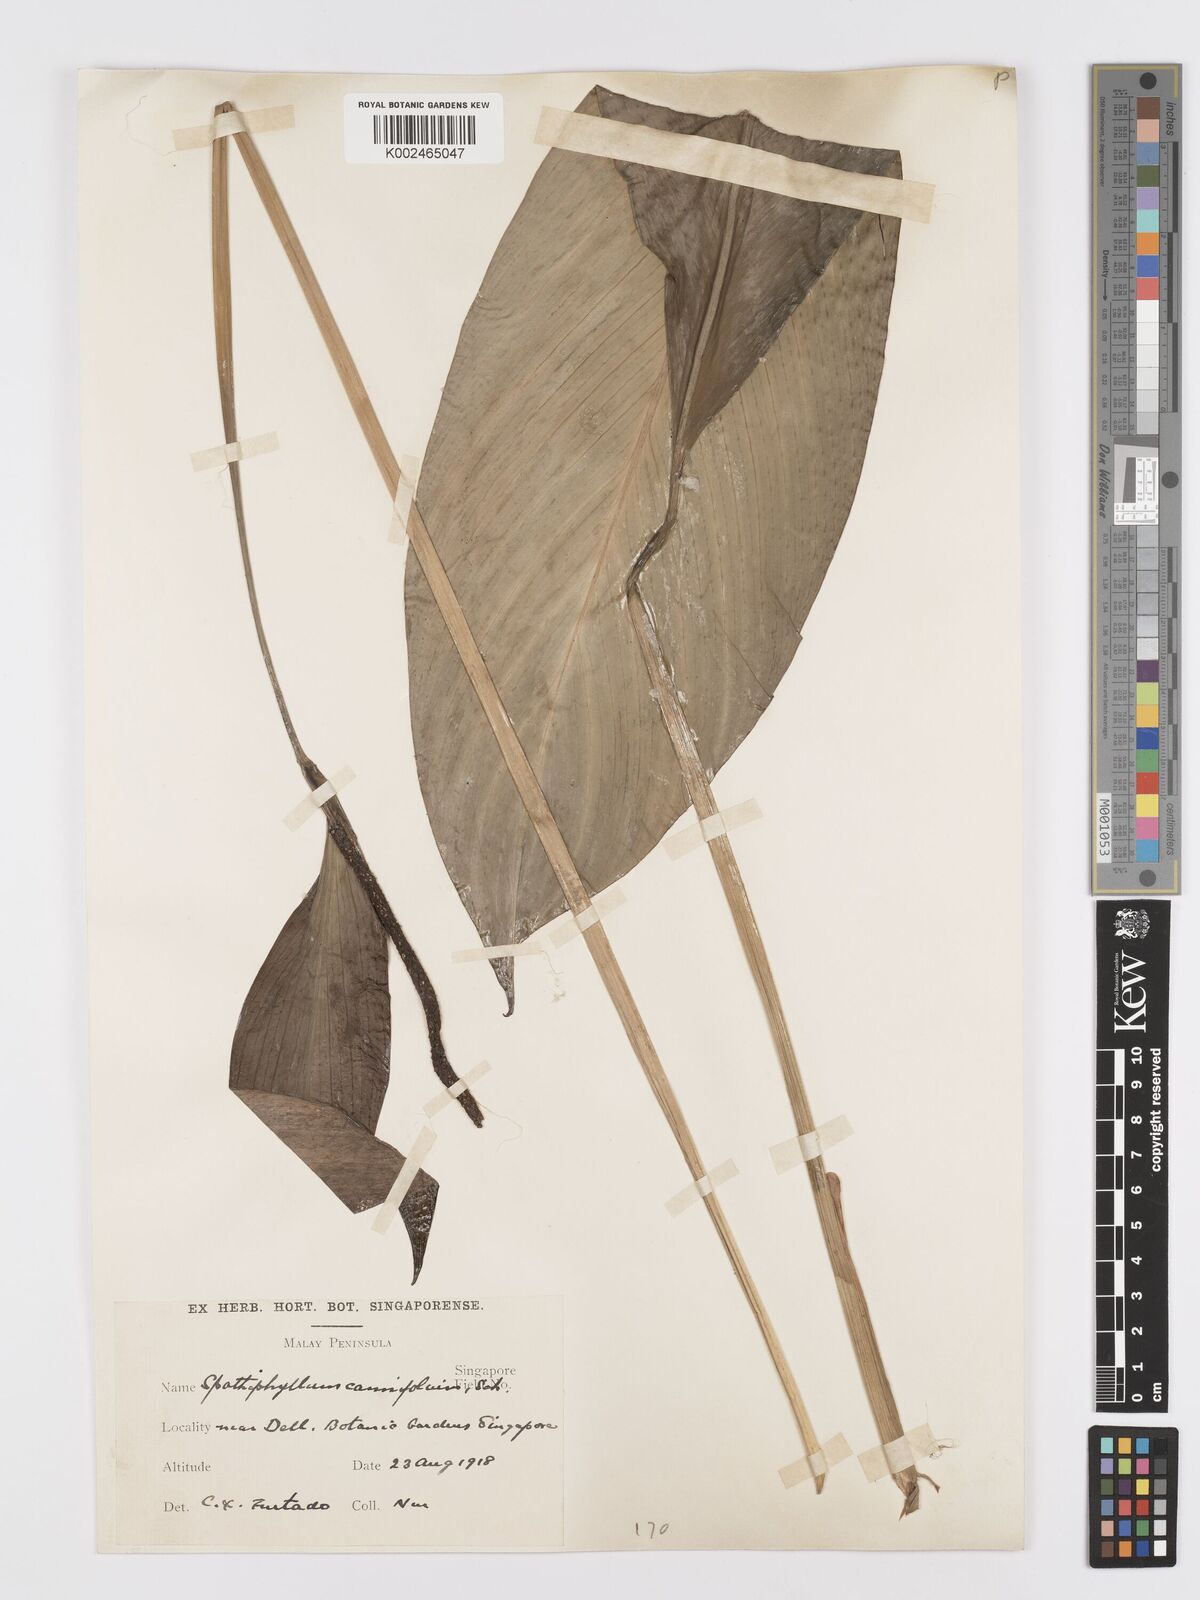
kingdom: Plantae
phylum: Tracheophyta
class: Liliopsida
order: Alismatales
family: Araceae
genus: Spathiphyllum
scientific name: Spathiphyllum cannifolium
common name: Spatheflower
